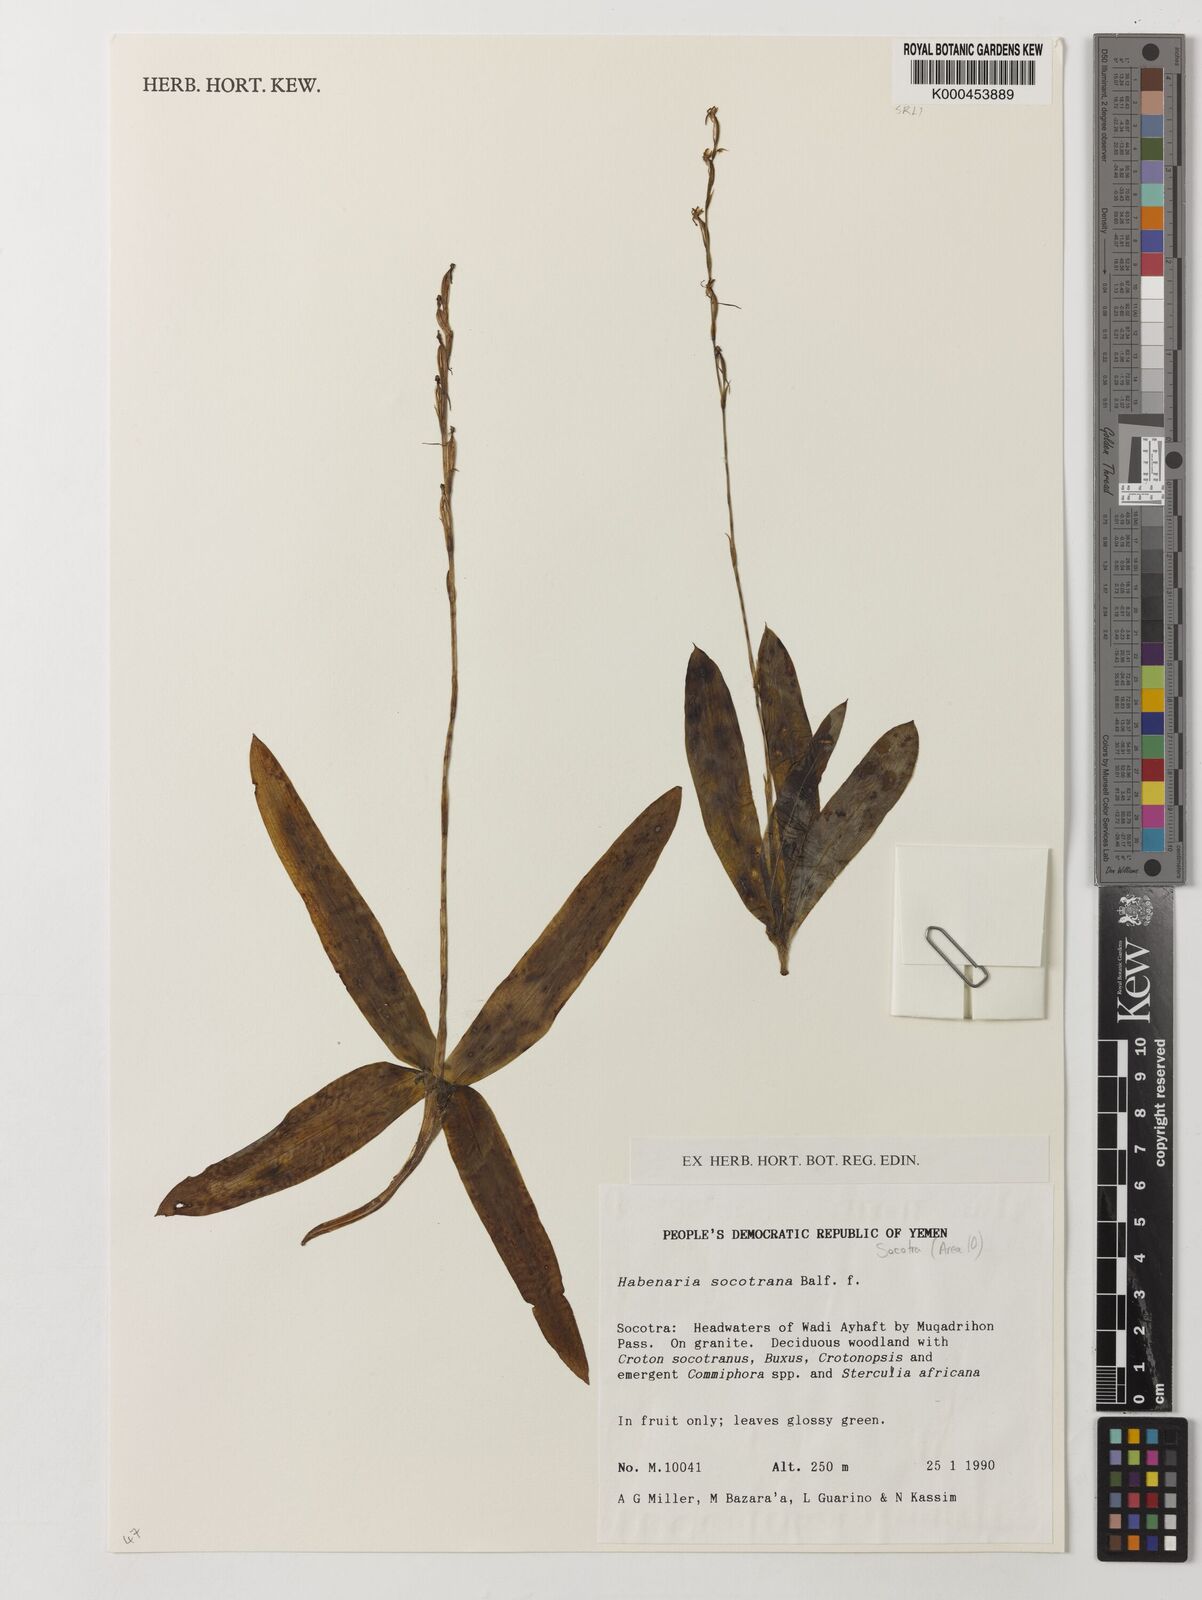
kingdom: Plantae
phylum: Tracheophyta
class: Liliopsida
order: Asparagales
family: Orchidaceae
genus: Habenaria
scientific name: Habenaria socotrana
